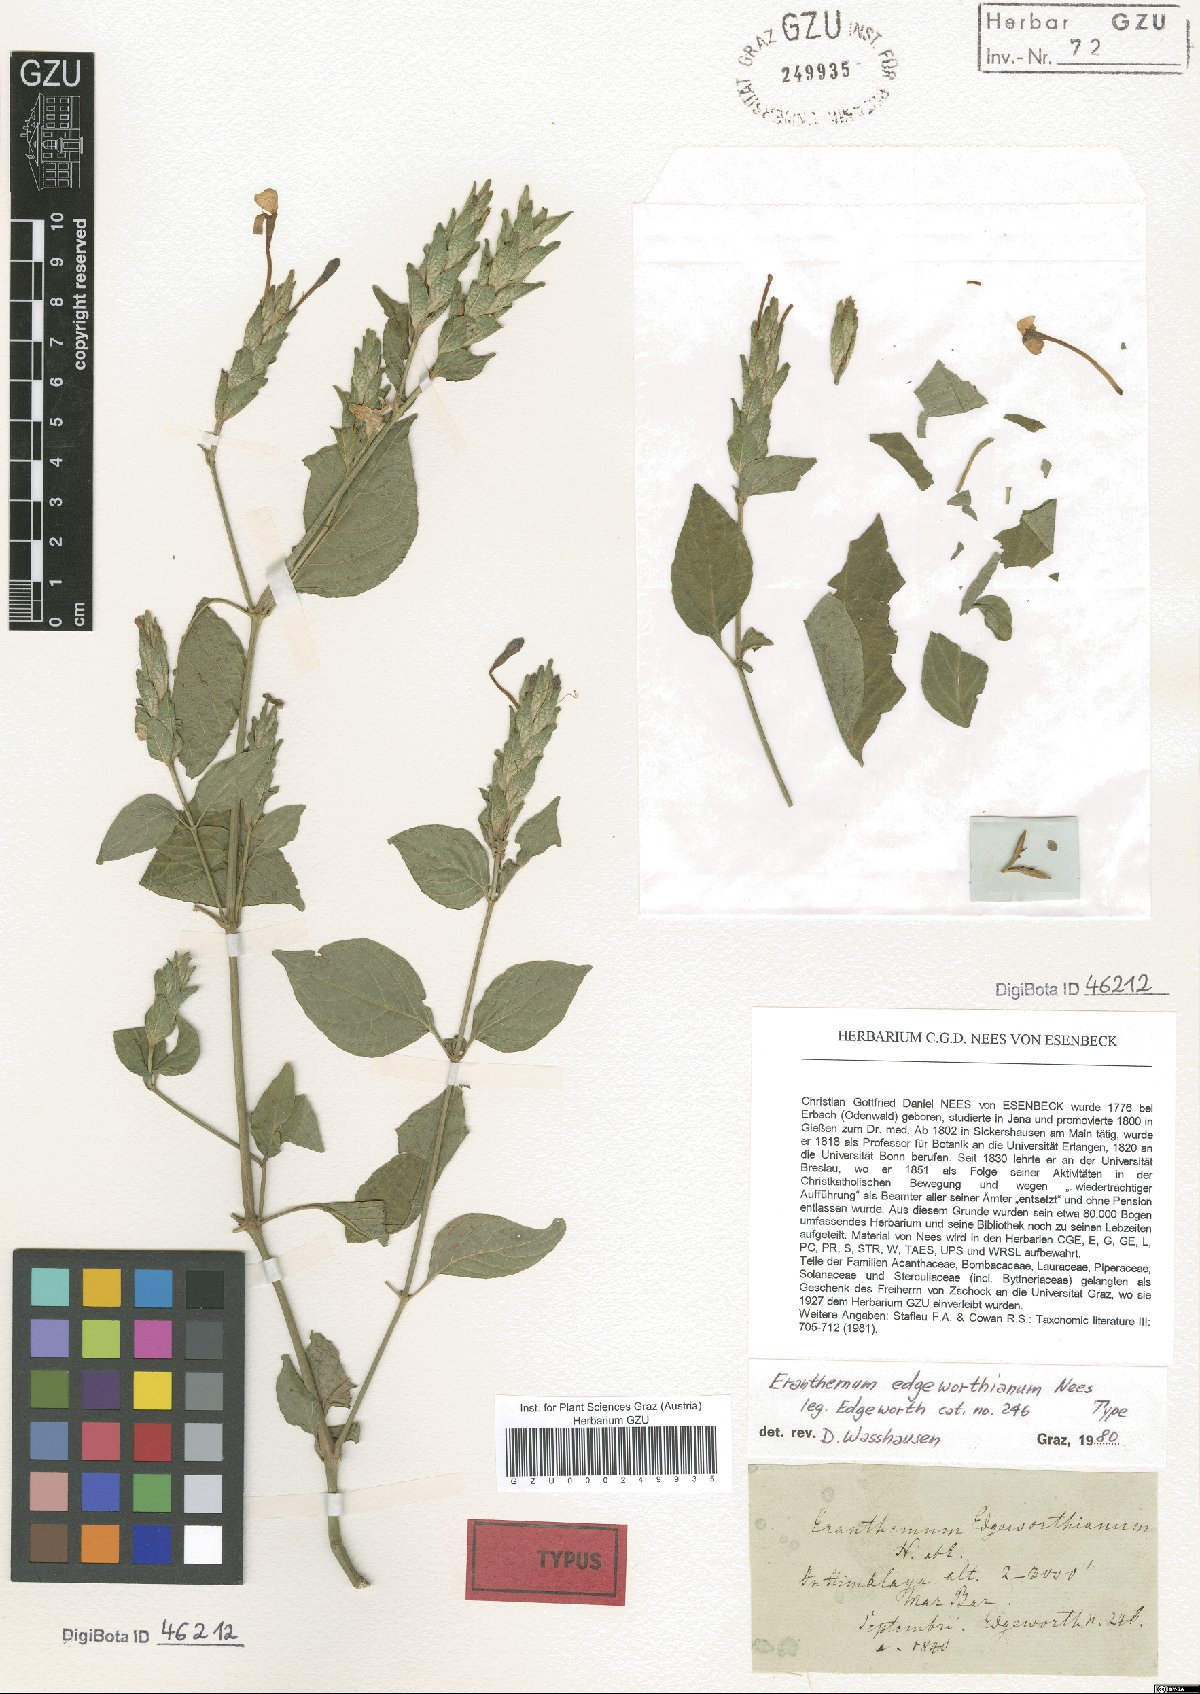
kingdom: Plantae
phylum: Tracheophyta
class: Magnoliopsida
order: Lamiales
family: Acanthaceae
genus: Eranthemum
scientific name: Eranthemum pulchellum
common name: Blue-sage
